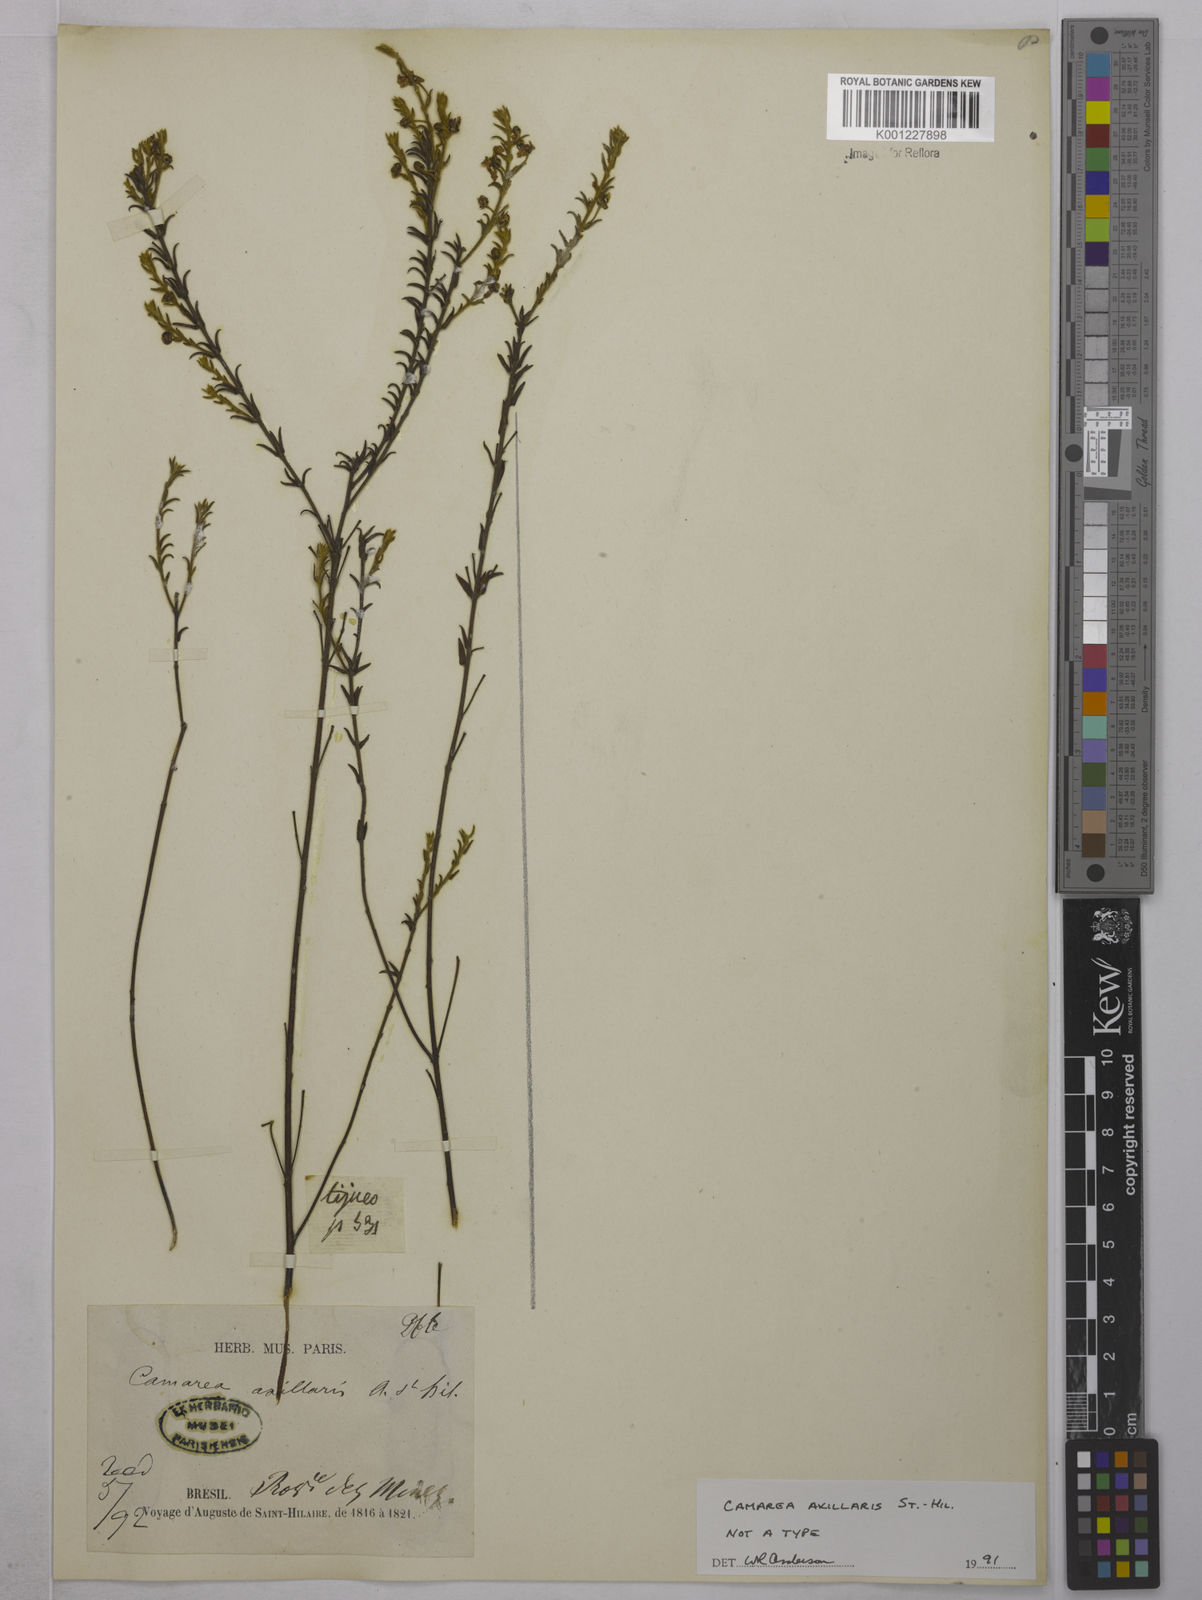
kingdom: Plantae
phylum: Tracheophyta
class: Magnoliopsida
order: Malpighiales
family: Malpighiaceae
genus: Camarea
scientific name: Camarea axillaris
